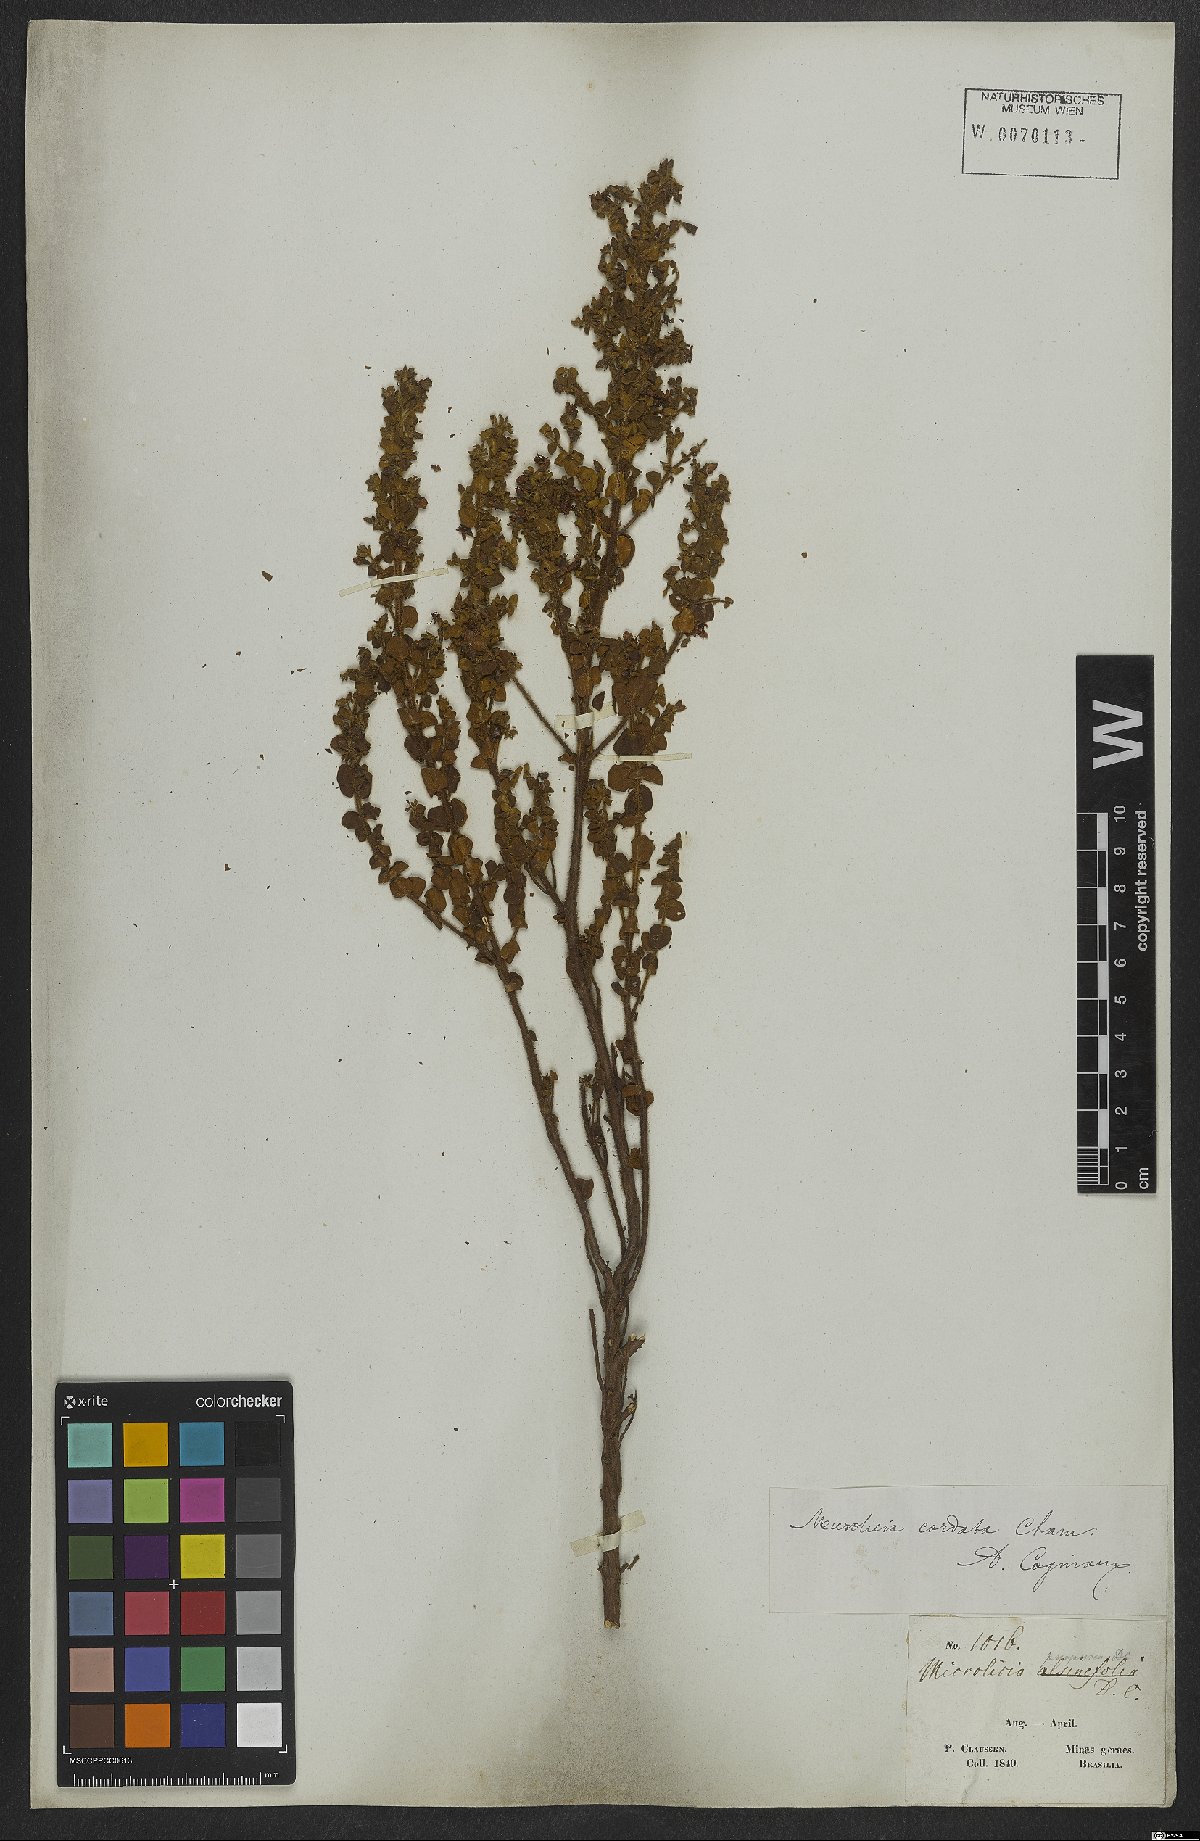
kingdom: Plantae
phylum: Tracheophyta
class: Magnoliopsida
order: Myrtales
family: Melastomataceae
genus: Microlicia
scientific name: Microlicia cordata
